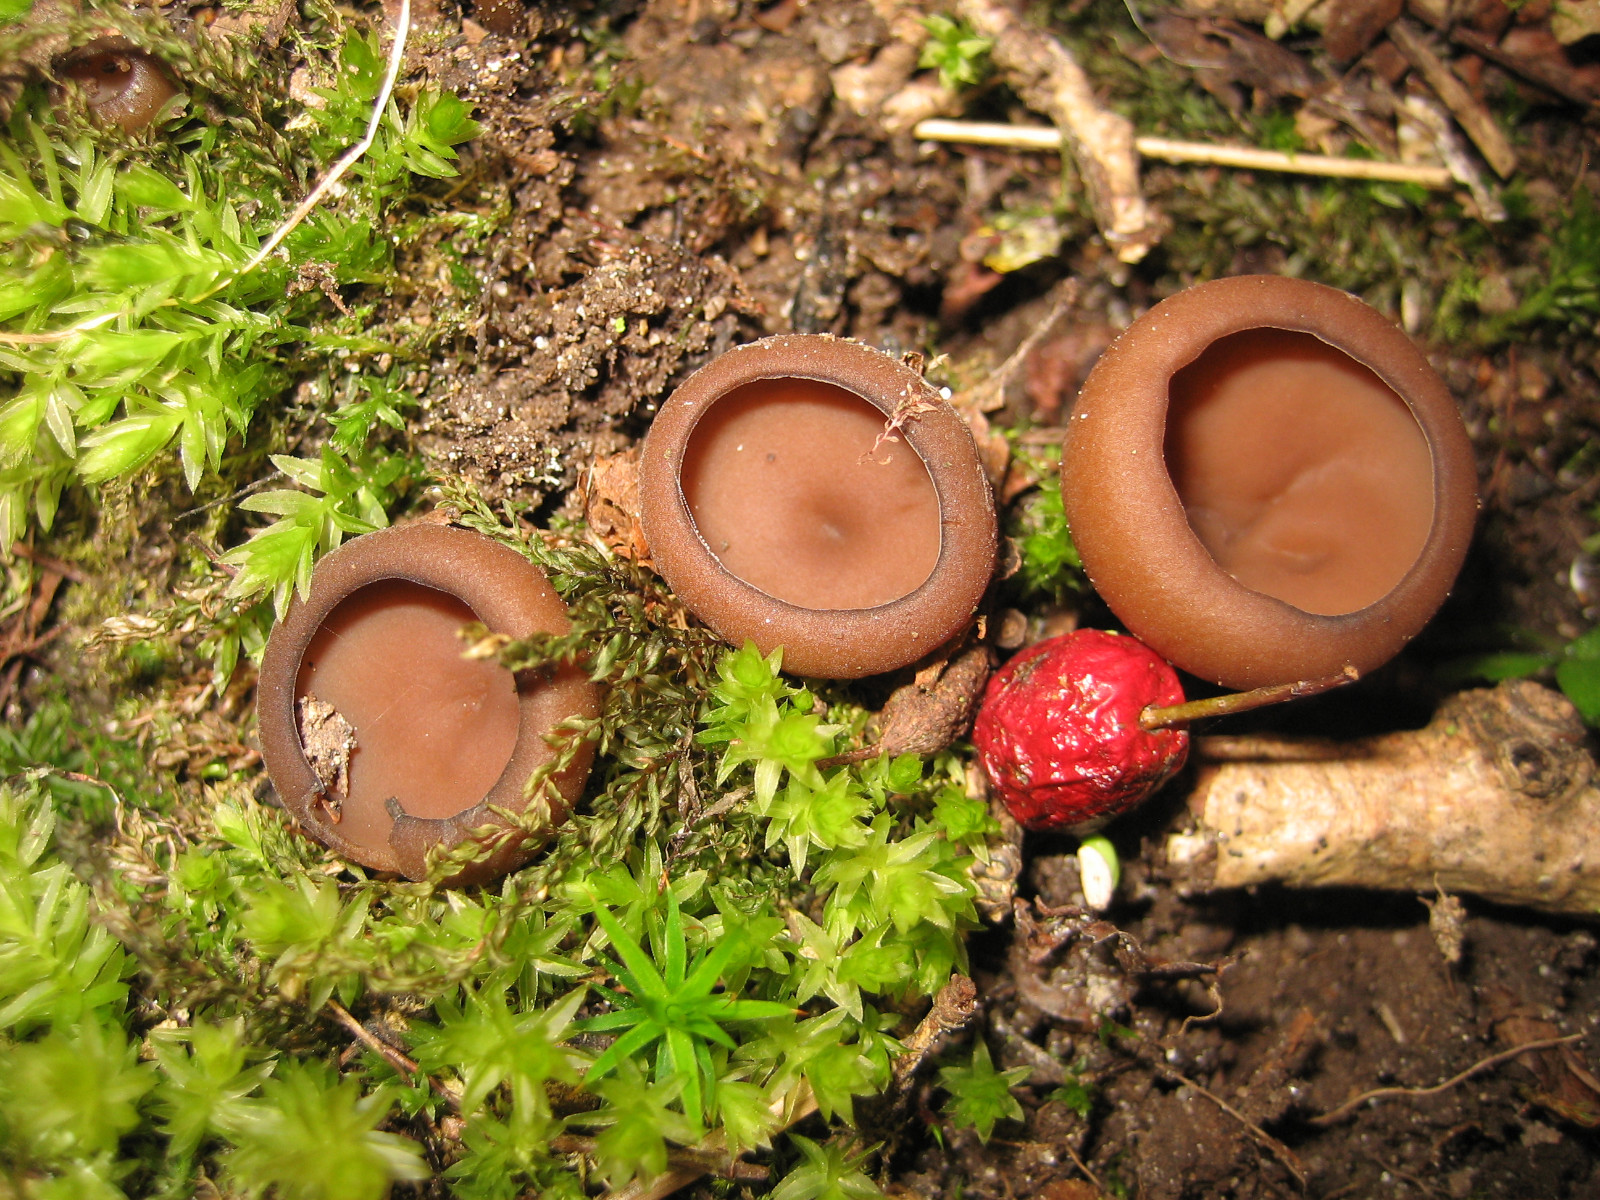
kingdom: Fungi
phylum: Ascomycota
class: Leotiomycetes
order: Helotiales
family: Sclerotiniaceae
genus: Dumontinia
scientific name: Dumontinia tuberosa
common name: anemone-knoldskive
